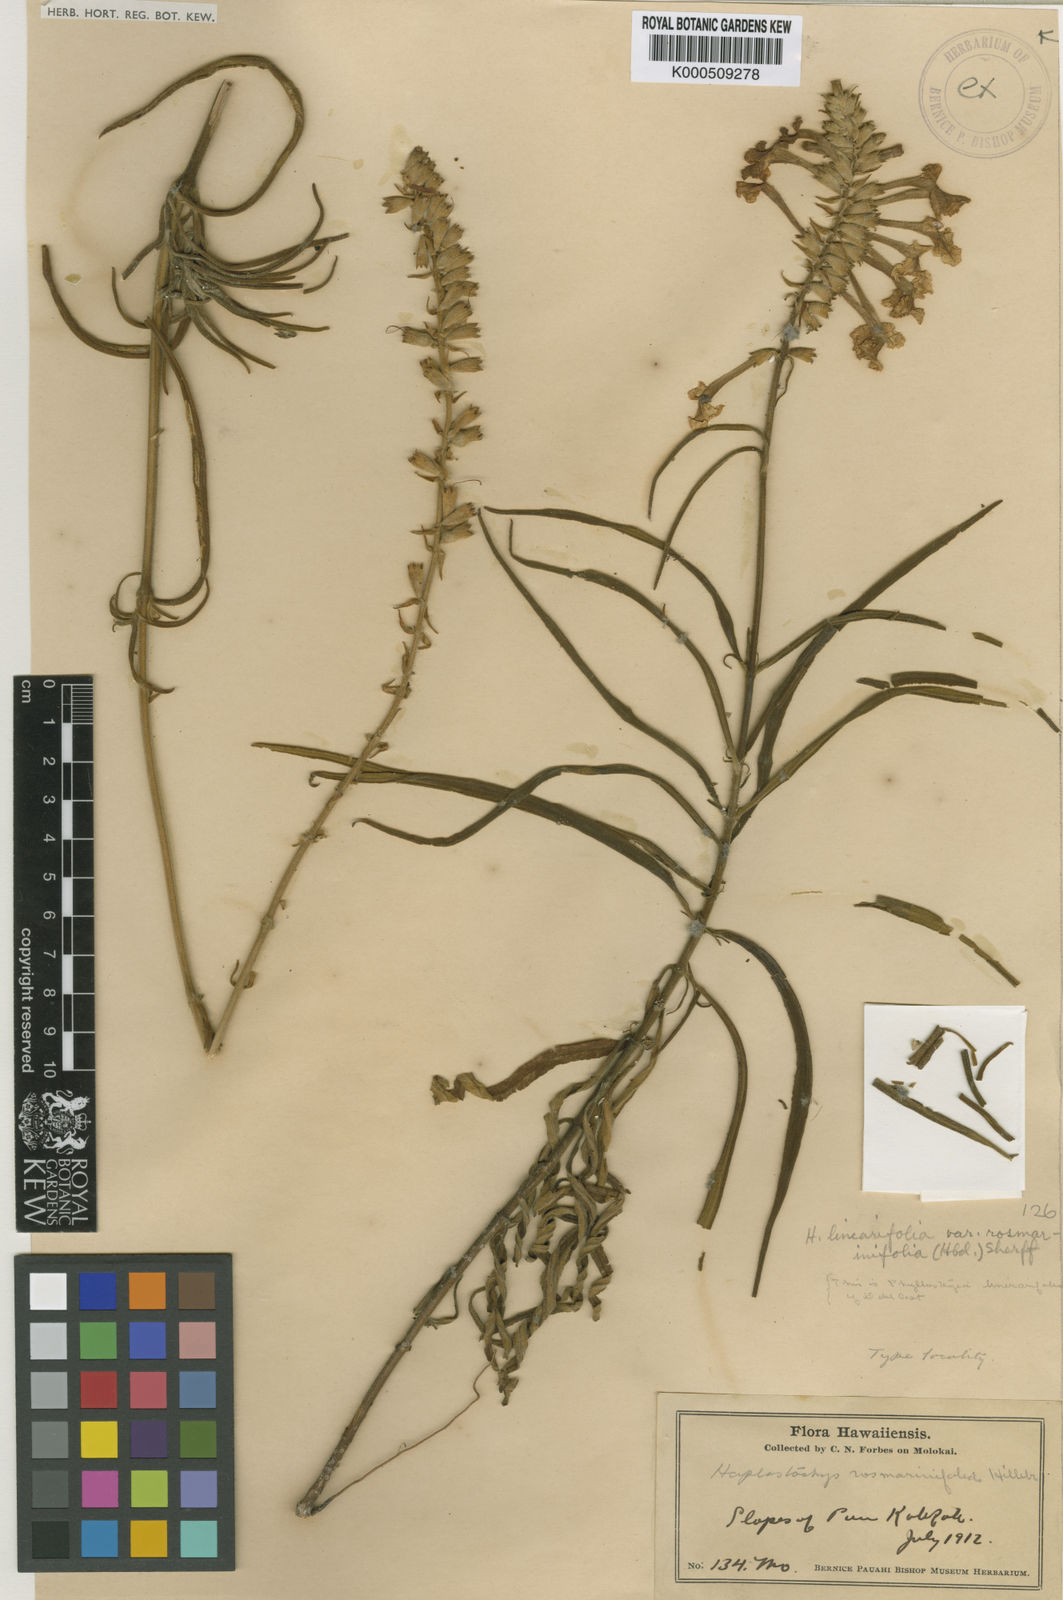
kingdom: Plantae
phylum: Tracheophyta
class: Magnoliopsida
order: Lamiales
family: Lamiaceae
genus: Haplostachys
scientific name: Haplostachys linearifolia
